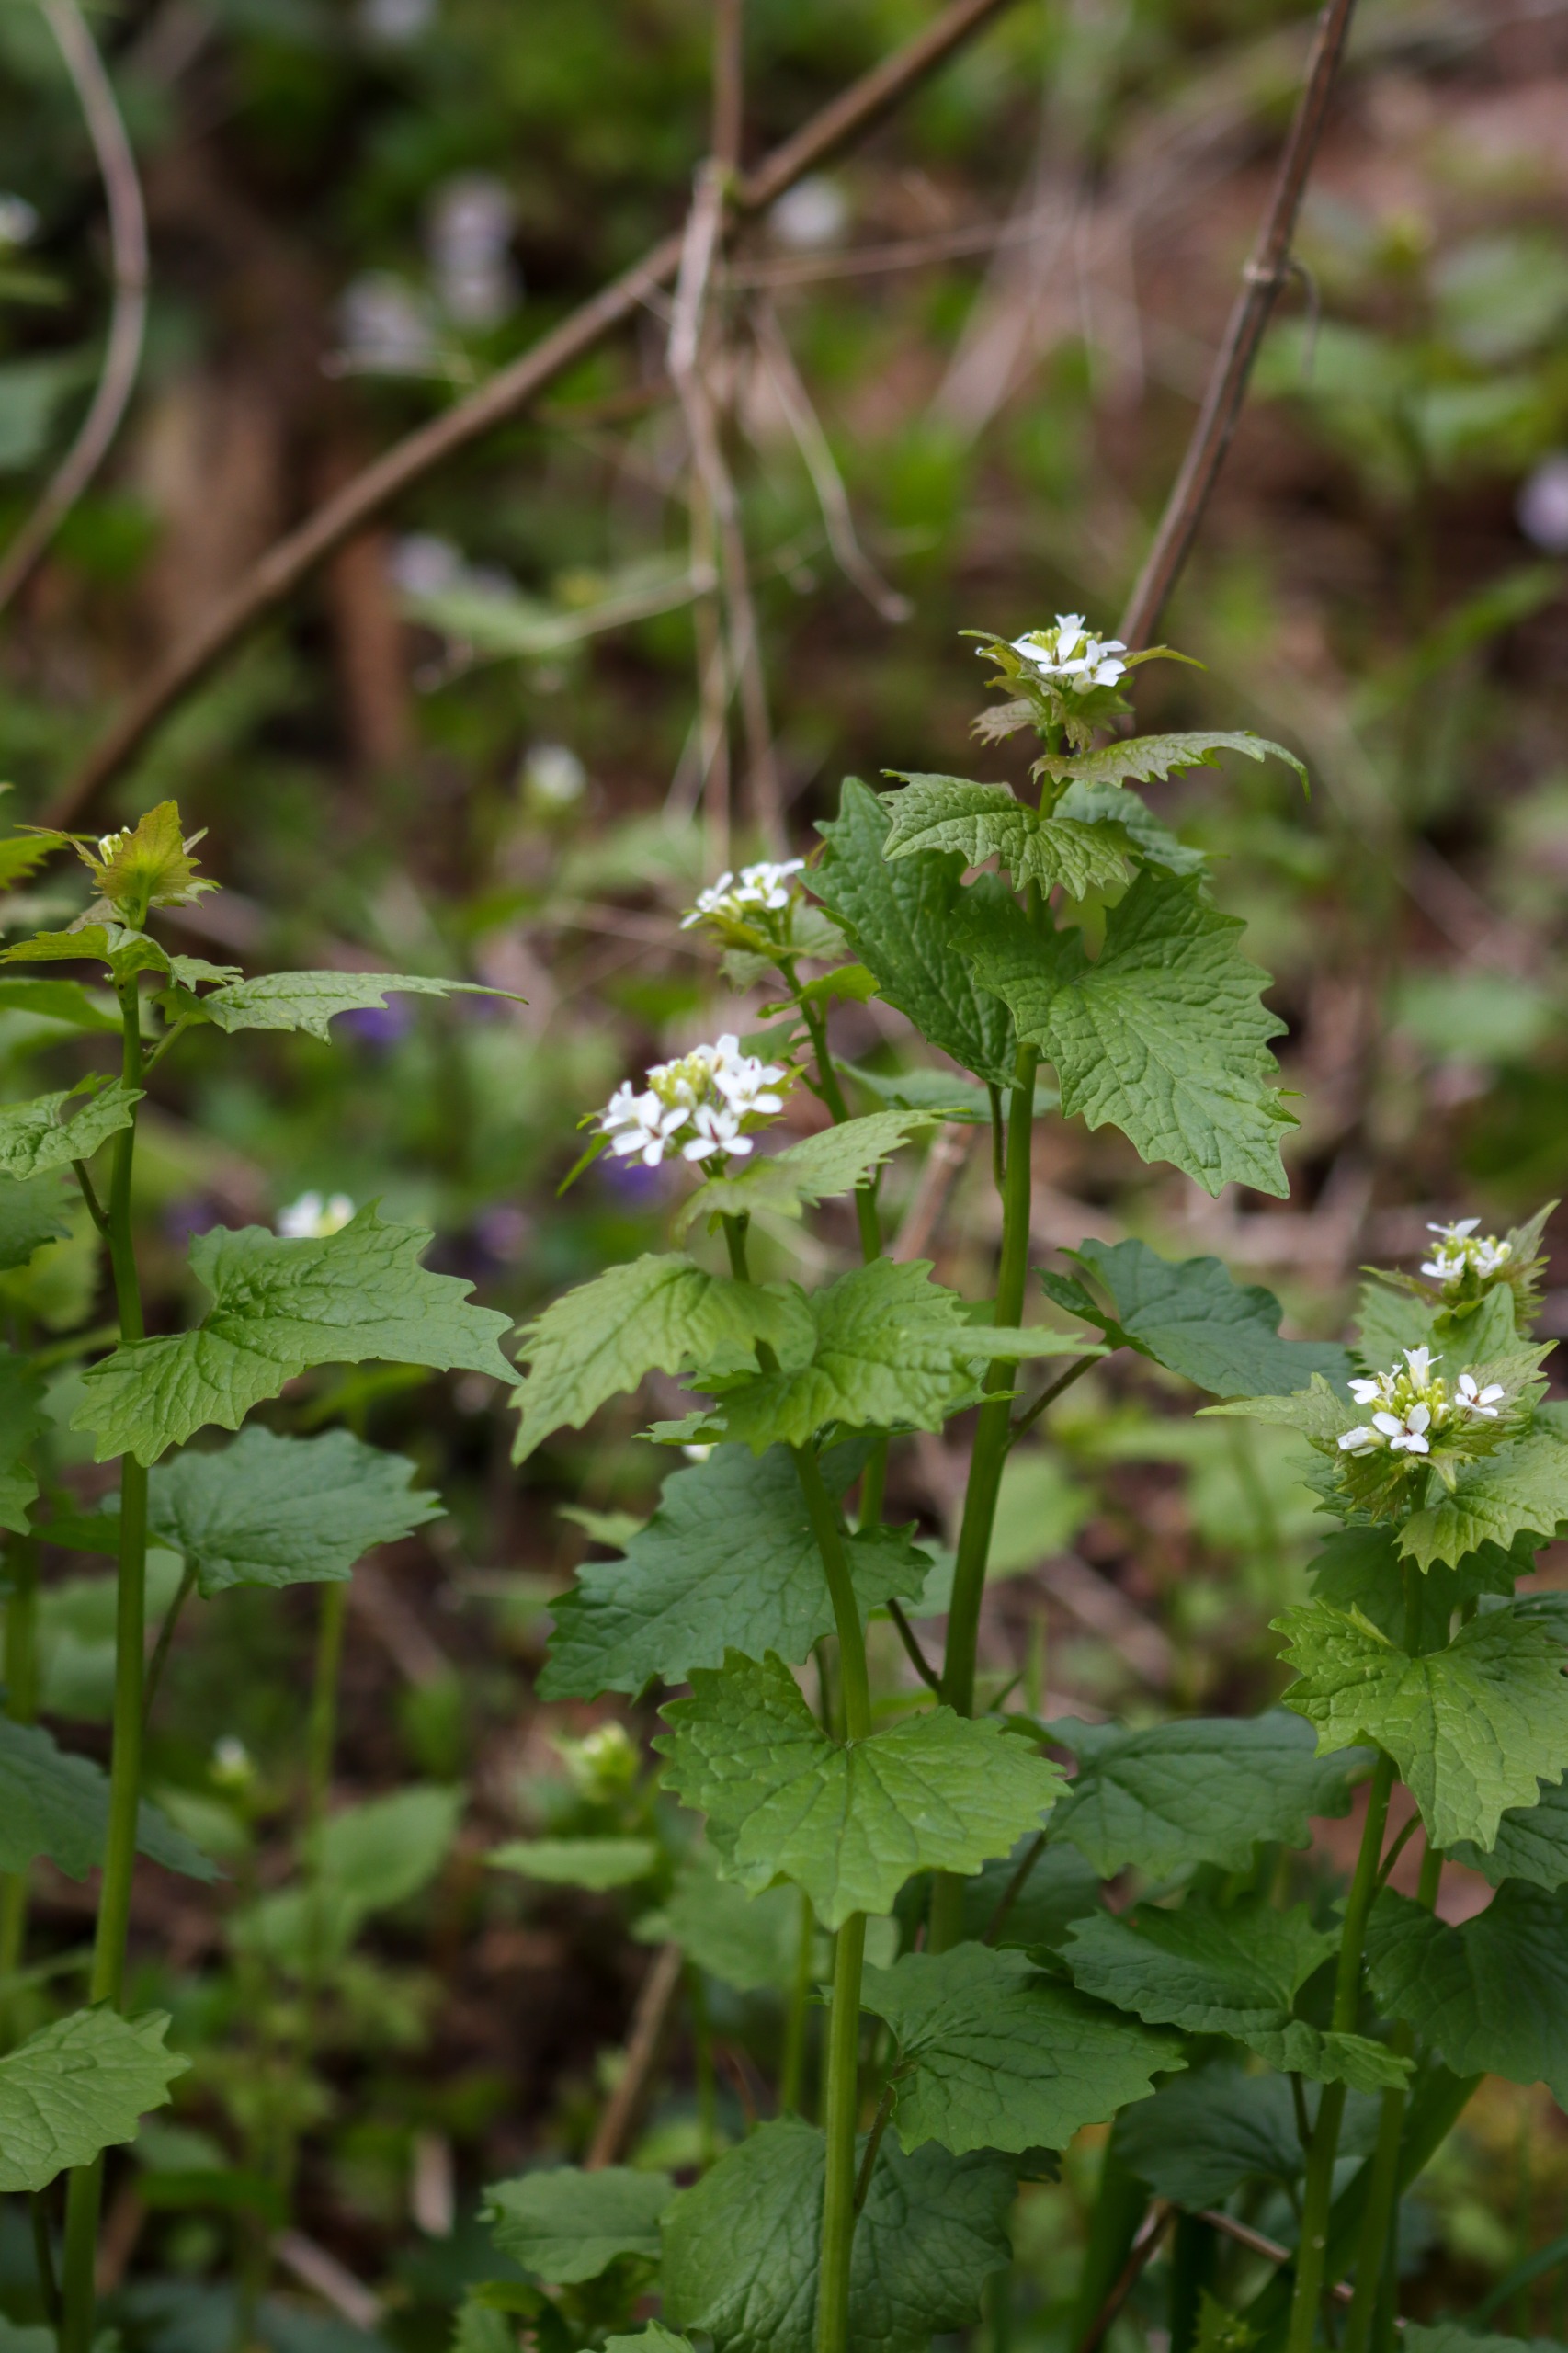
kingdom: Plantae
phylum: Tracheophyta
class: Magnoliopsida
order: Brassicales
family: Brassicaceae
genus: Alliaria
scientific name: Alliaria petiolata
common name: Løgkarse
